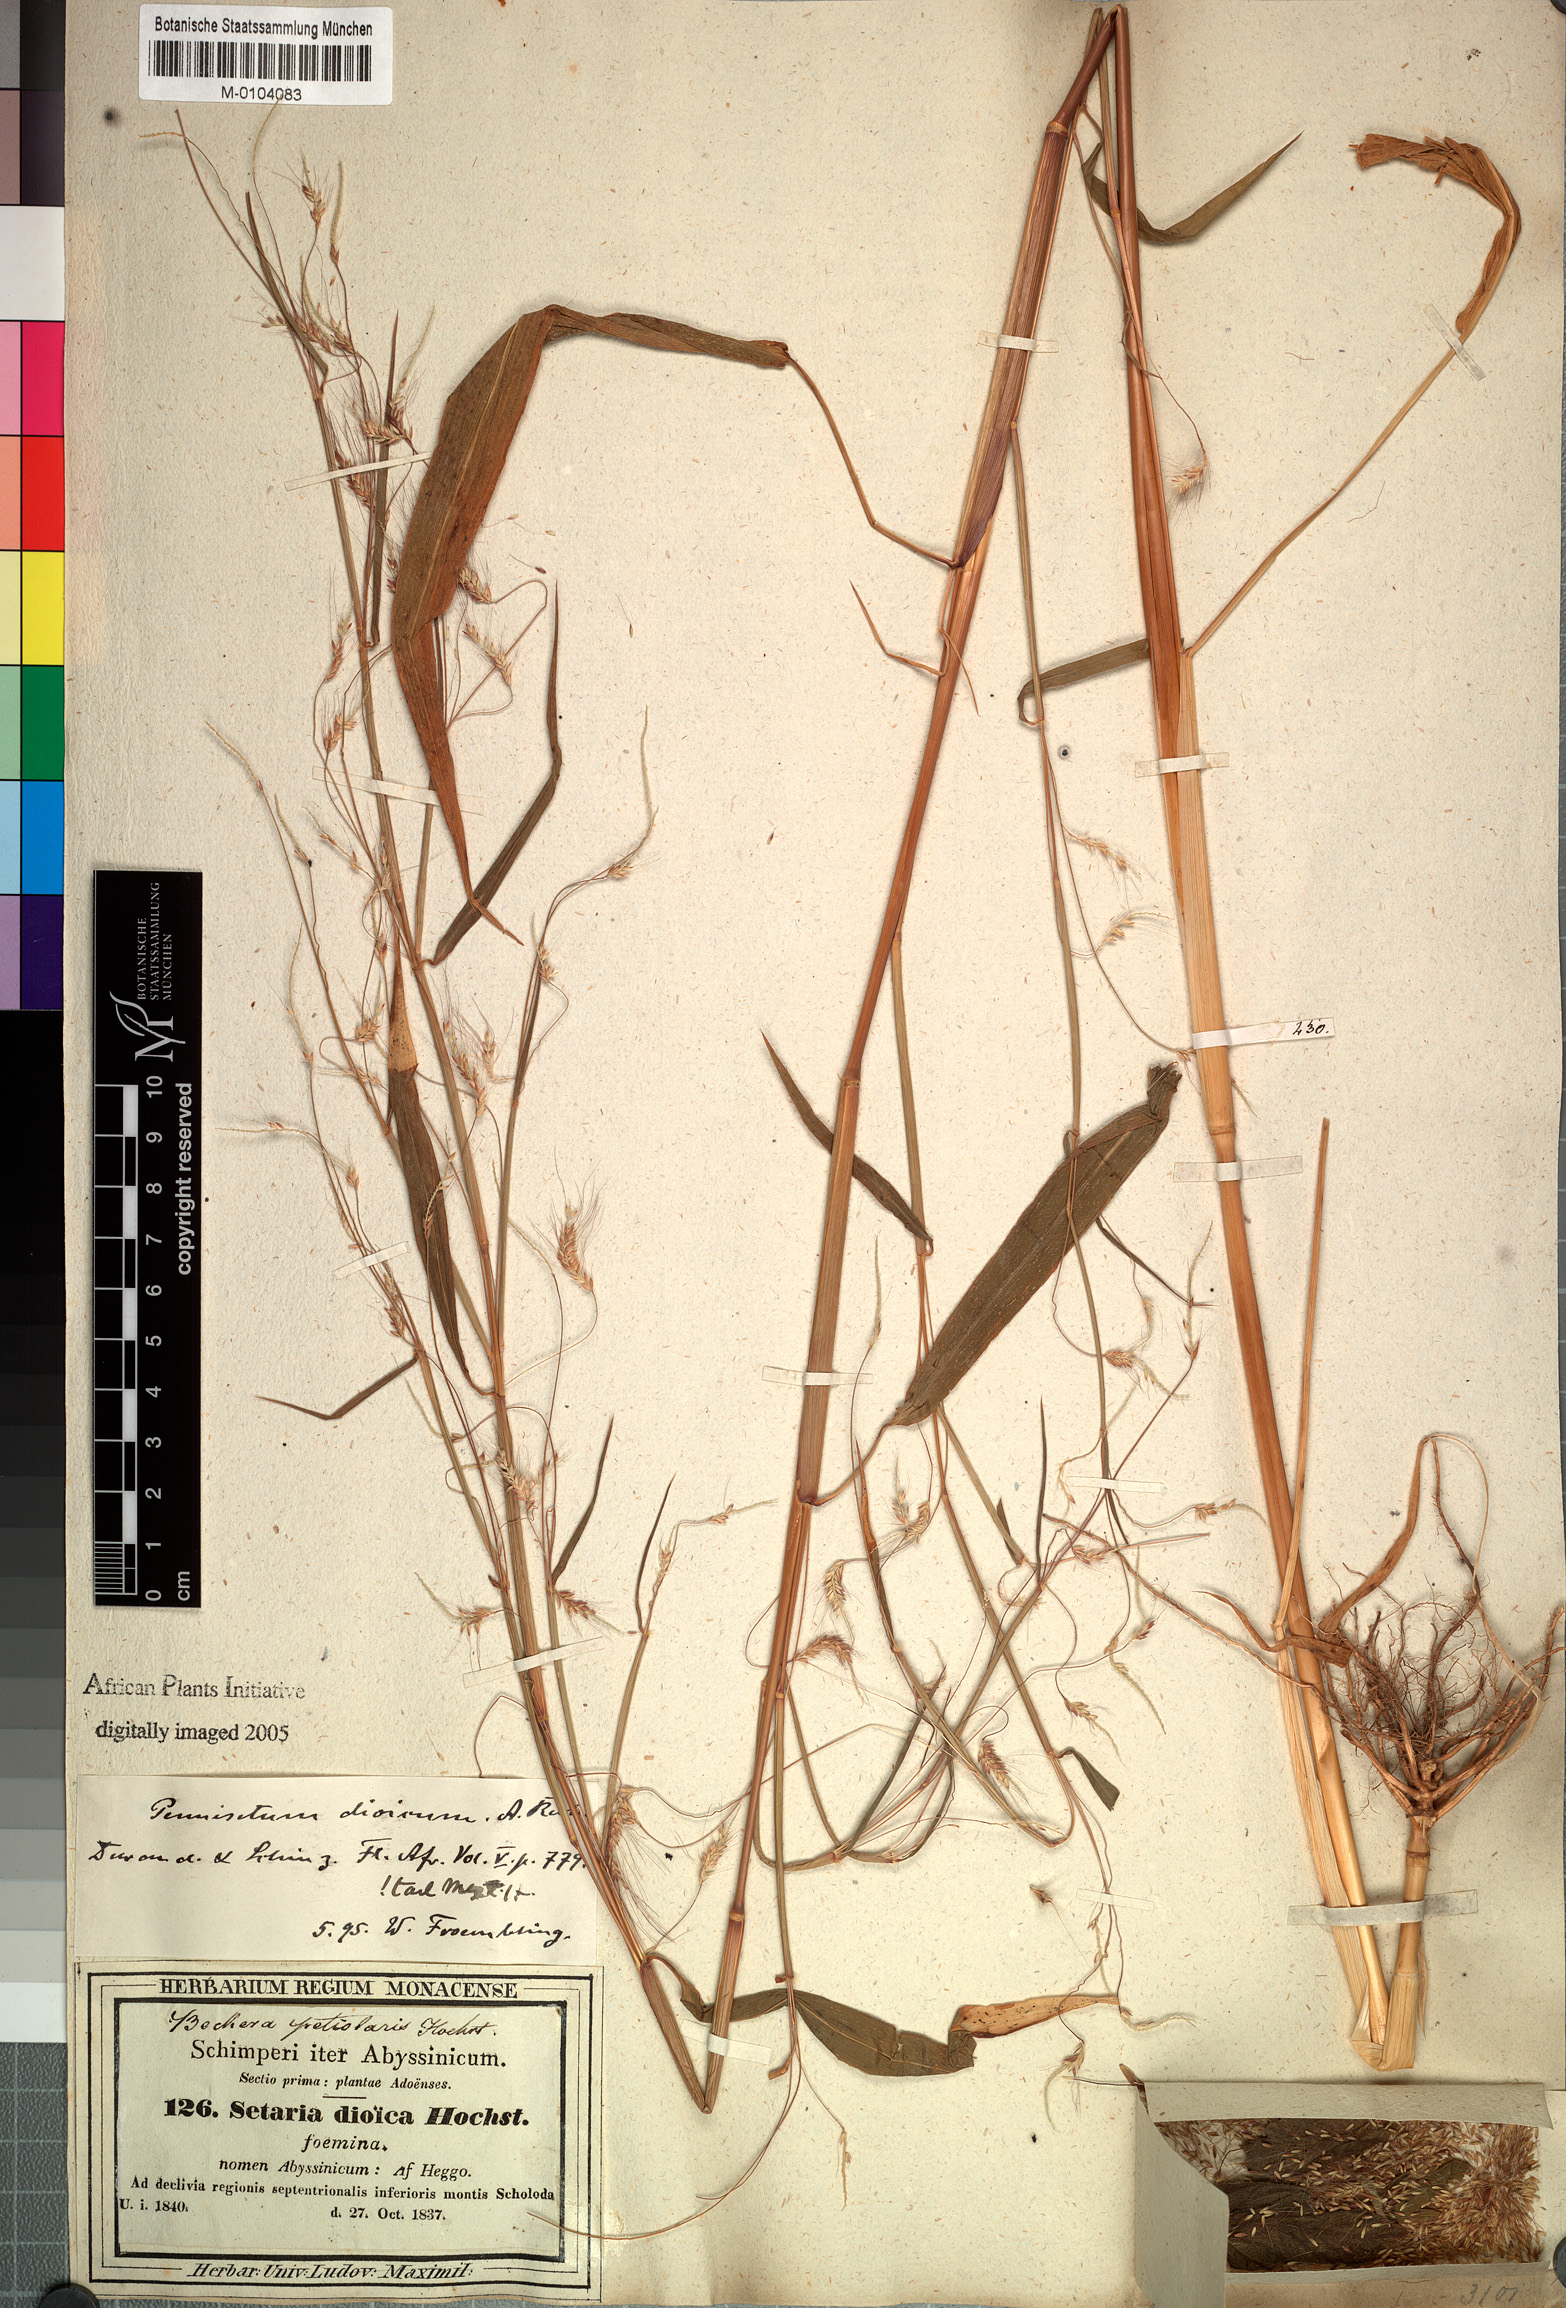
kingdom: Plantae
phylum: Tracheophyta
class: Liliopsida
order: Poales
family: Poaceae
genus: Cenchrus
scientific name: Cenchrus petiolaris
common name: Grass
